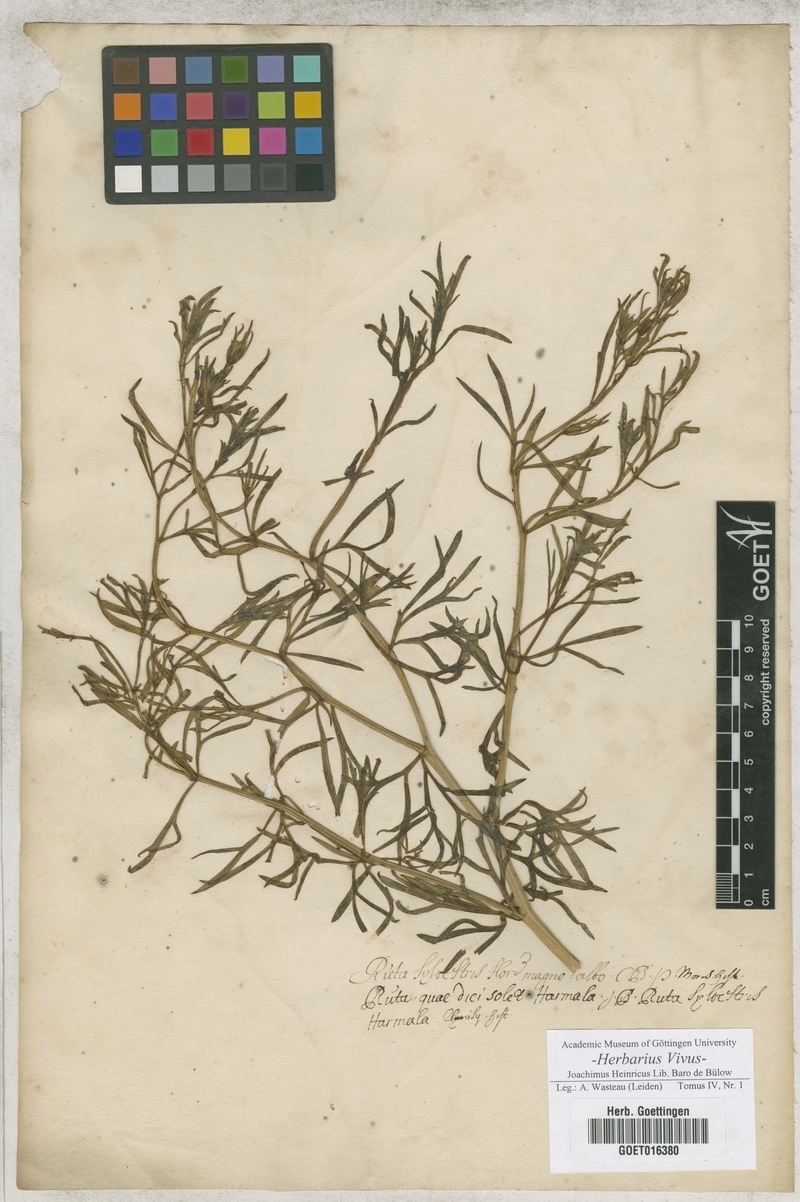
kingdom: Plantae
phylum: Tracheophyta
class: Magnoliopsida
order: Sapindales
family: Tetradiclidaceae
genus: Peganum
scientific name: Peganum harmala
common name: Harmal peganum
